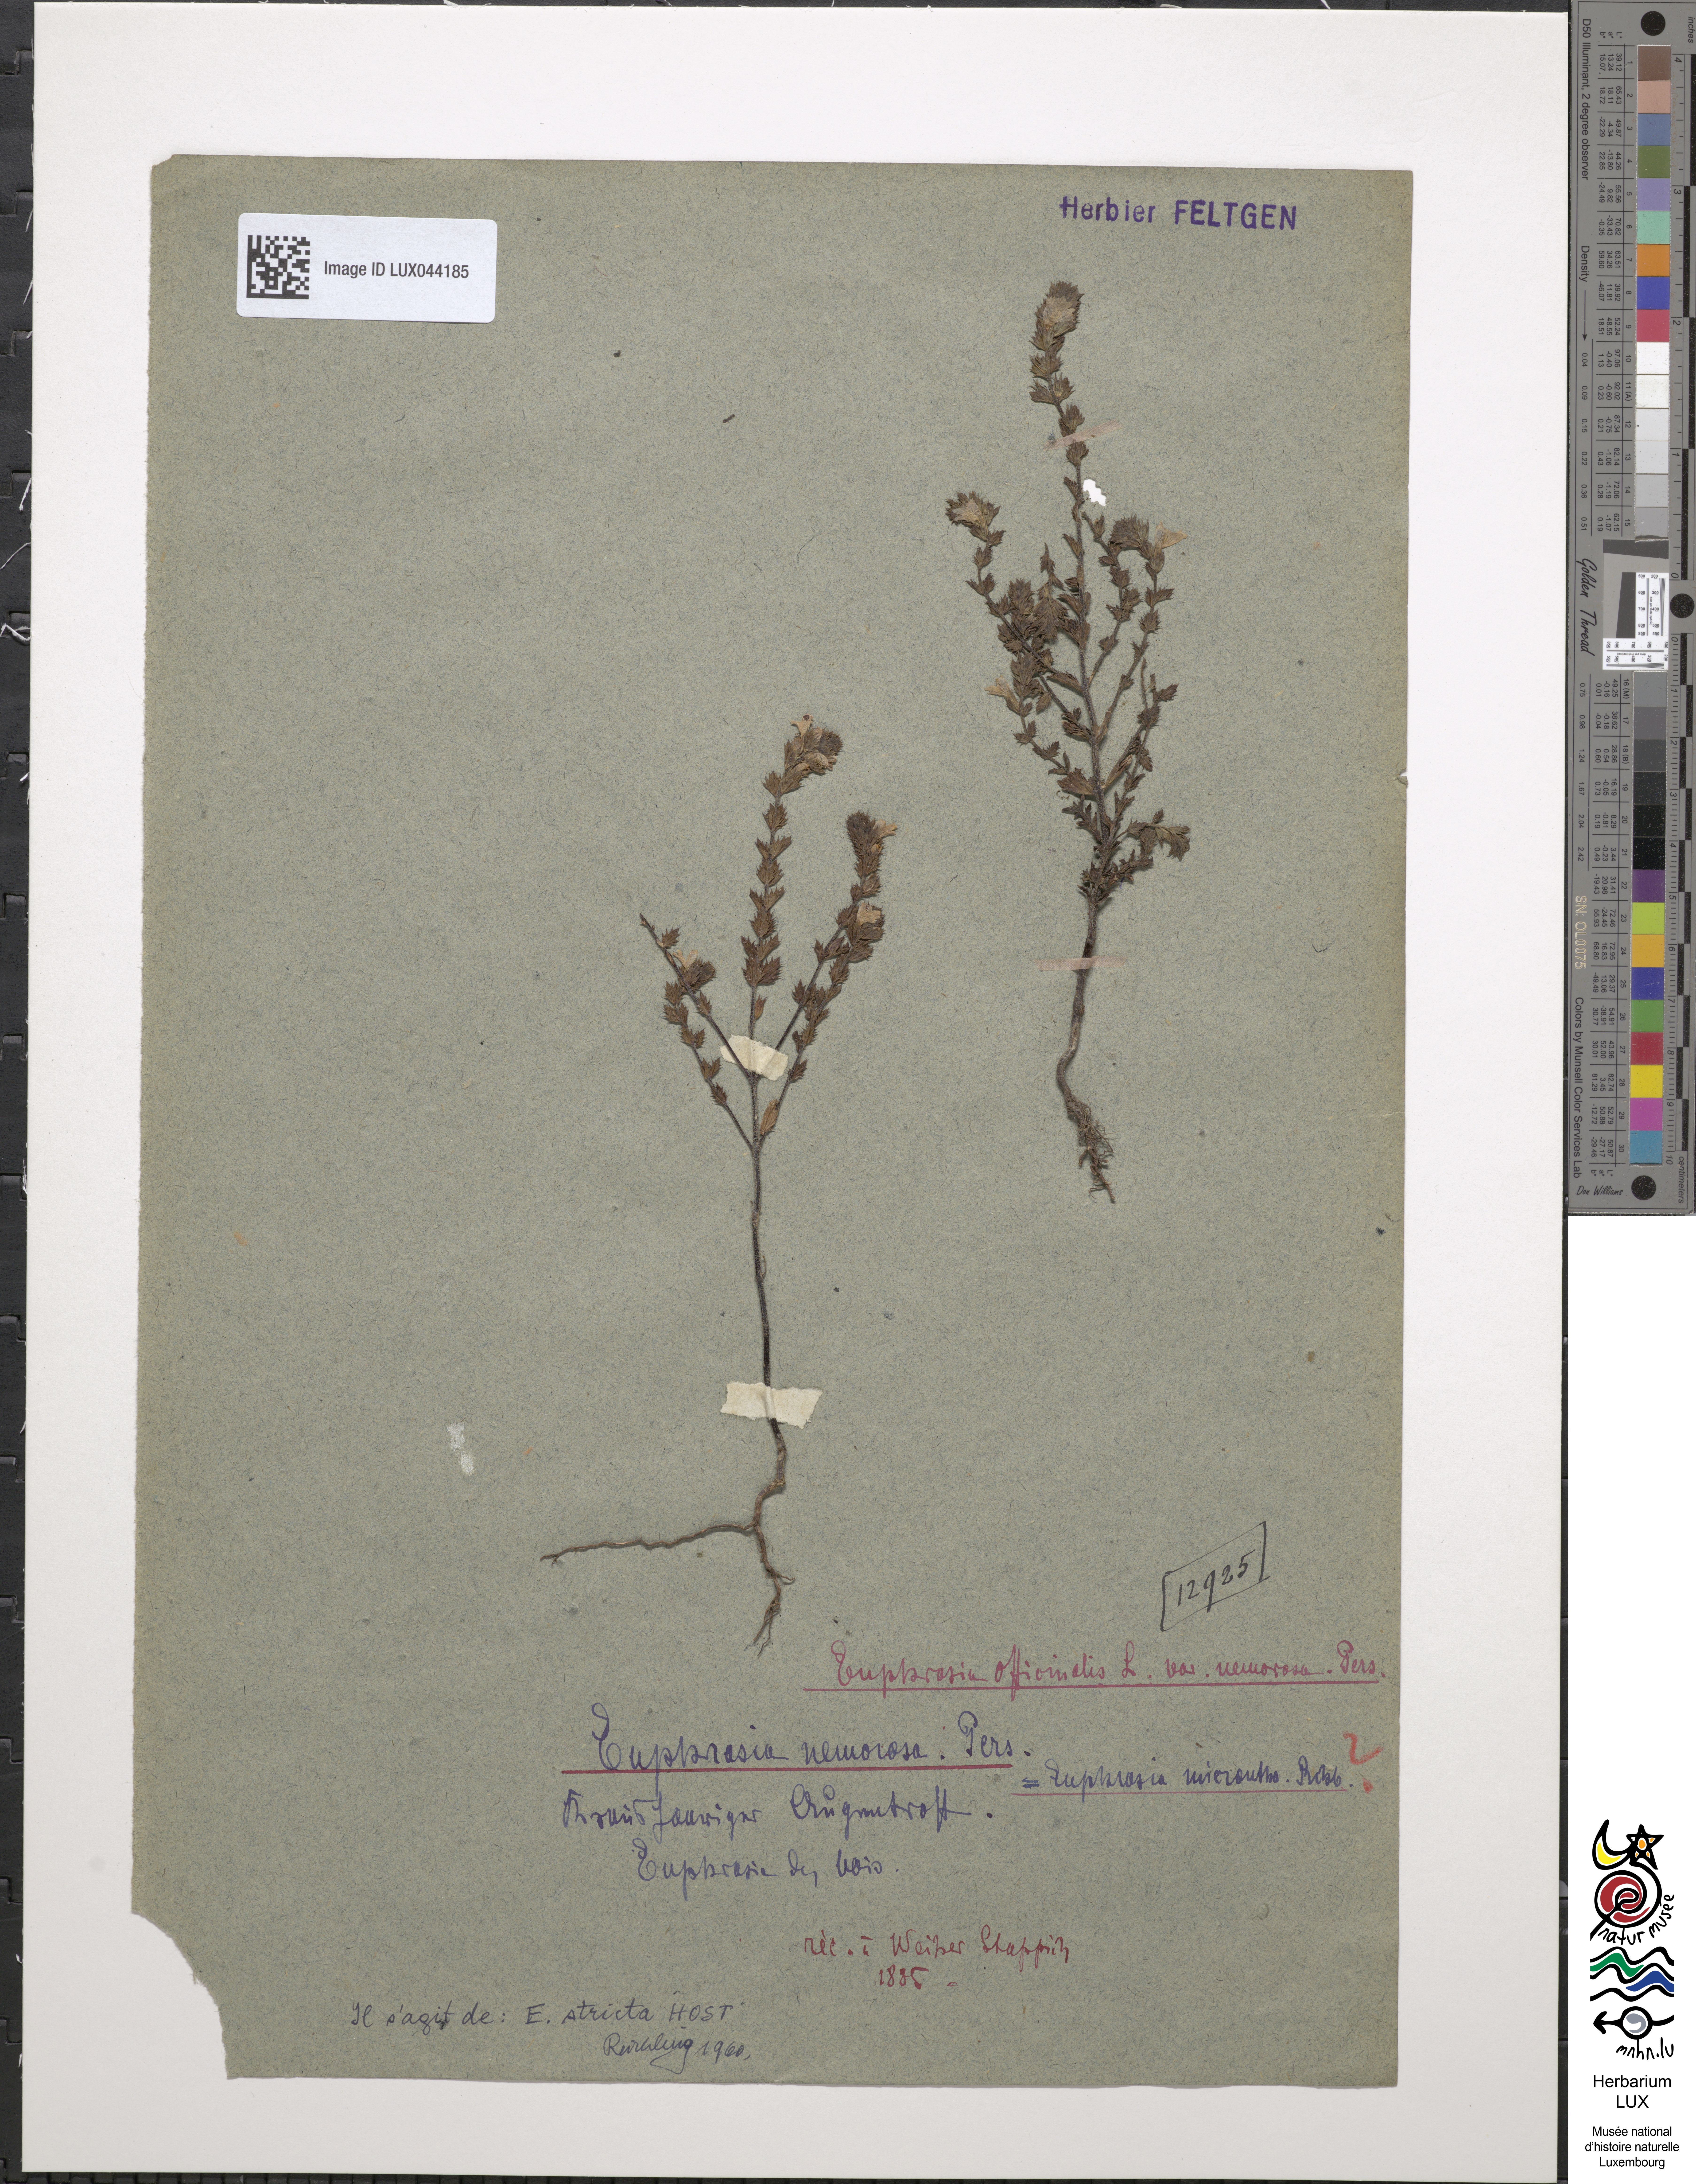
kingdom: Plantae
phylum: Tracheophyta
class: Magnoliopsida
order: Lamiales
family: Orobanchaceae
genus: Euphrasia
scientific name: Euphrasia nemorosa
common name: Common eyebright
